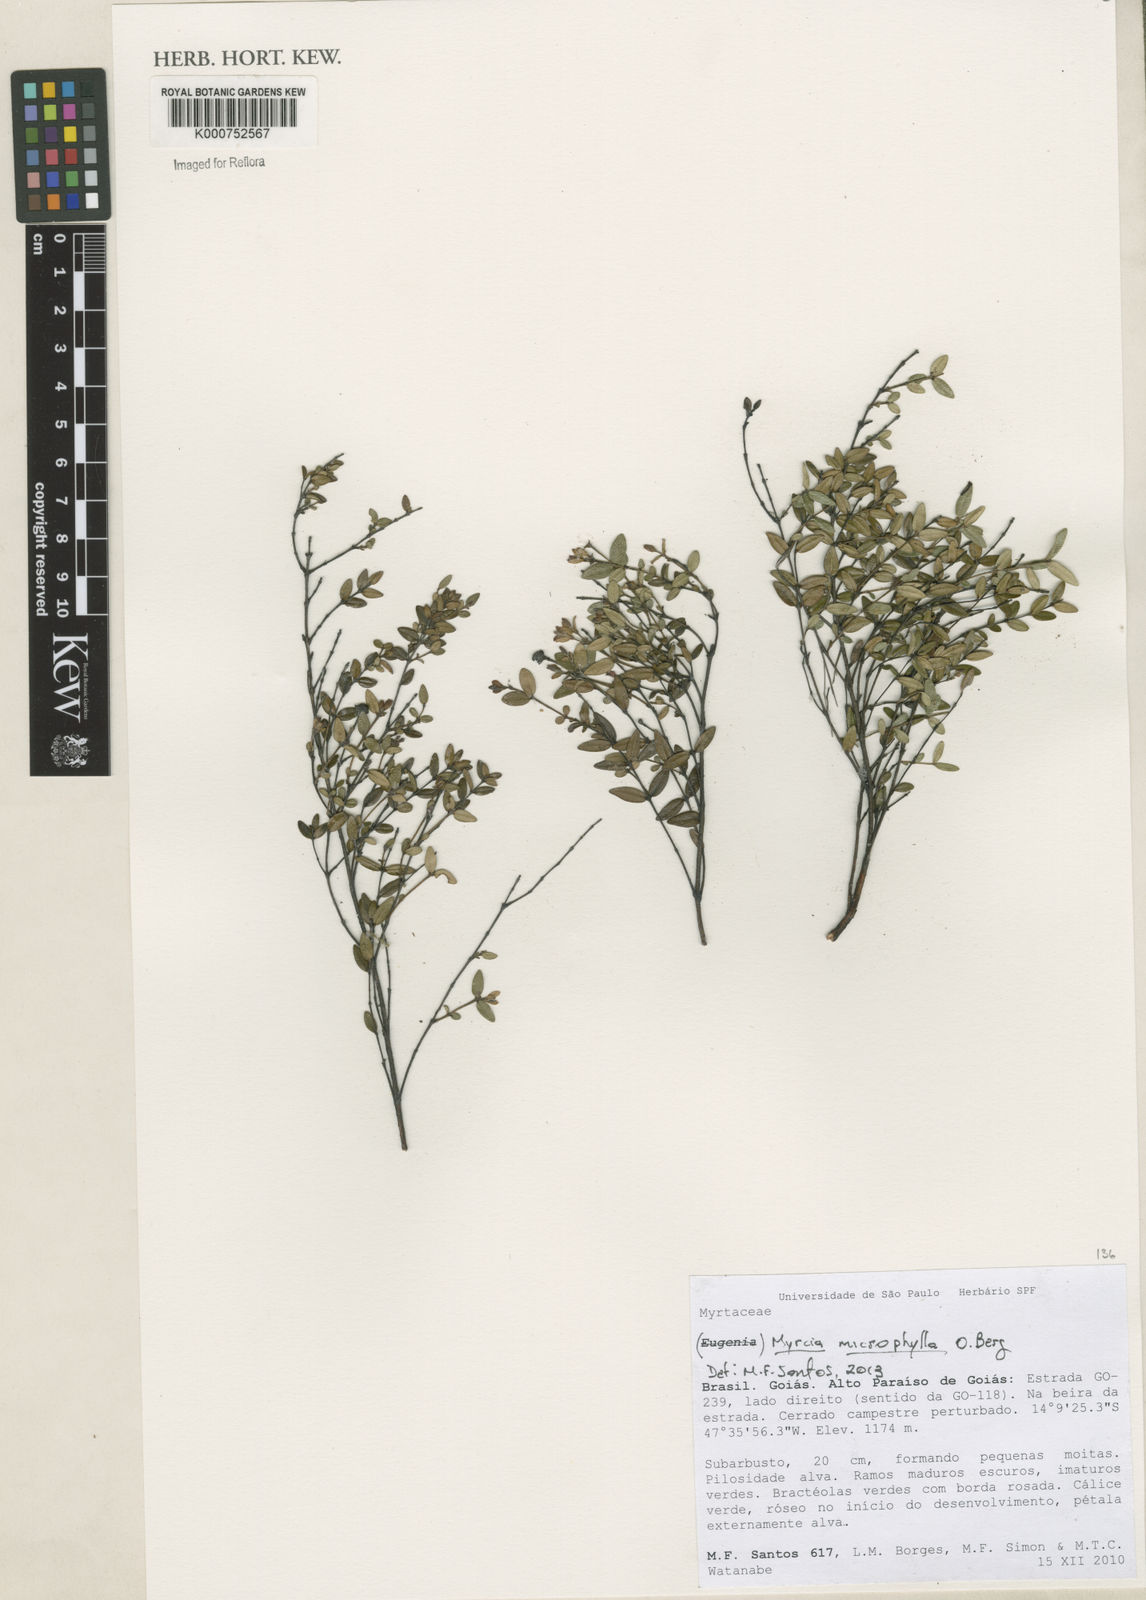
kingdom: Plantae
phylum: Tracheophyta
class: Magnoliopsida
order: Myrtales
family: Myrtaceae
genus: Myrcia
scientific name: Myrcia microphylla
